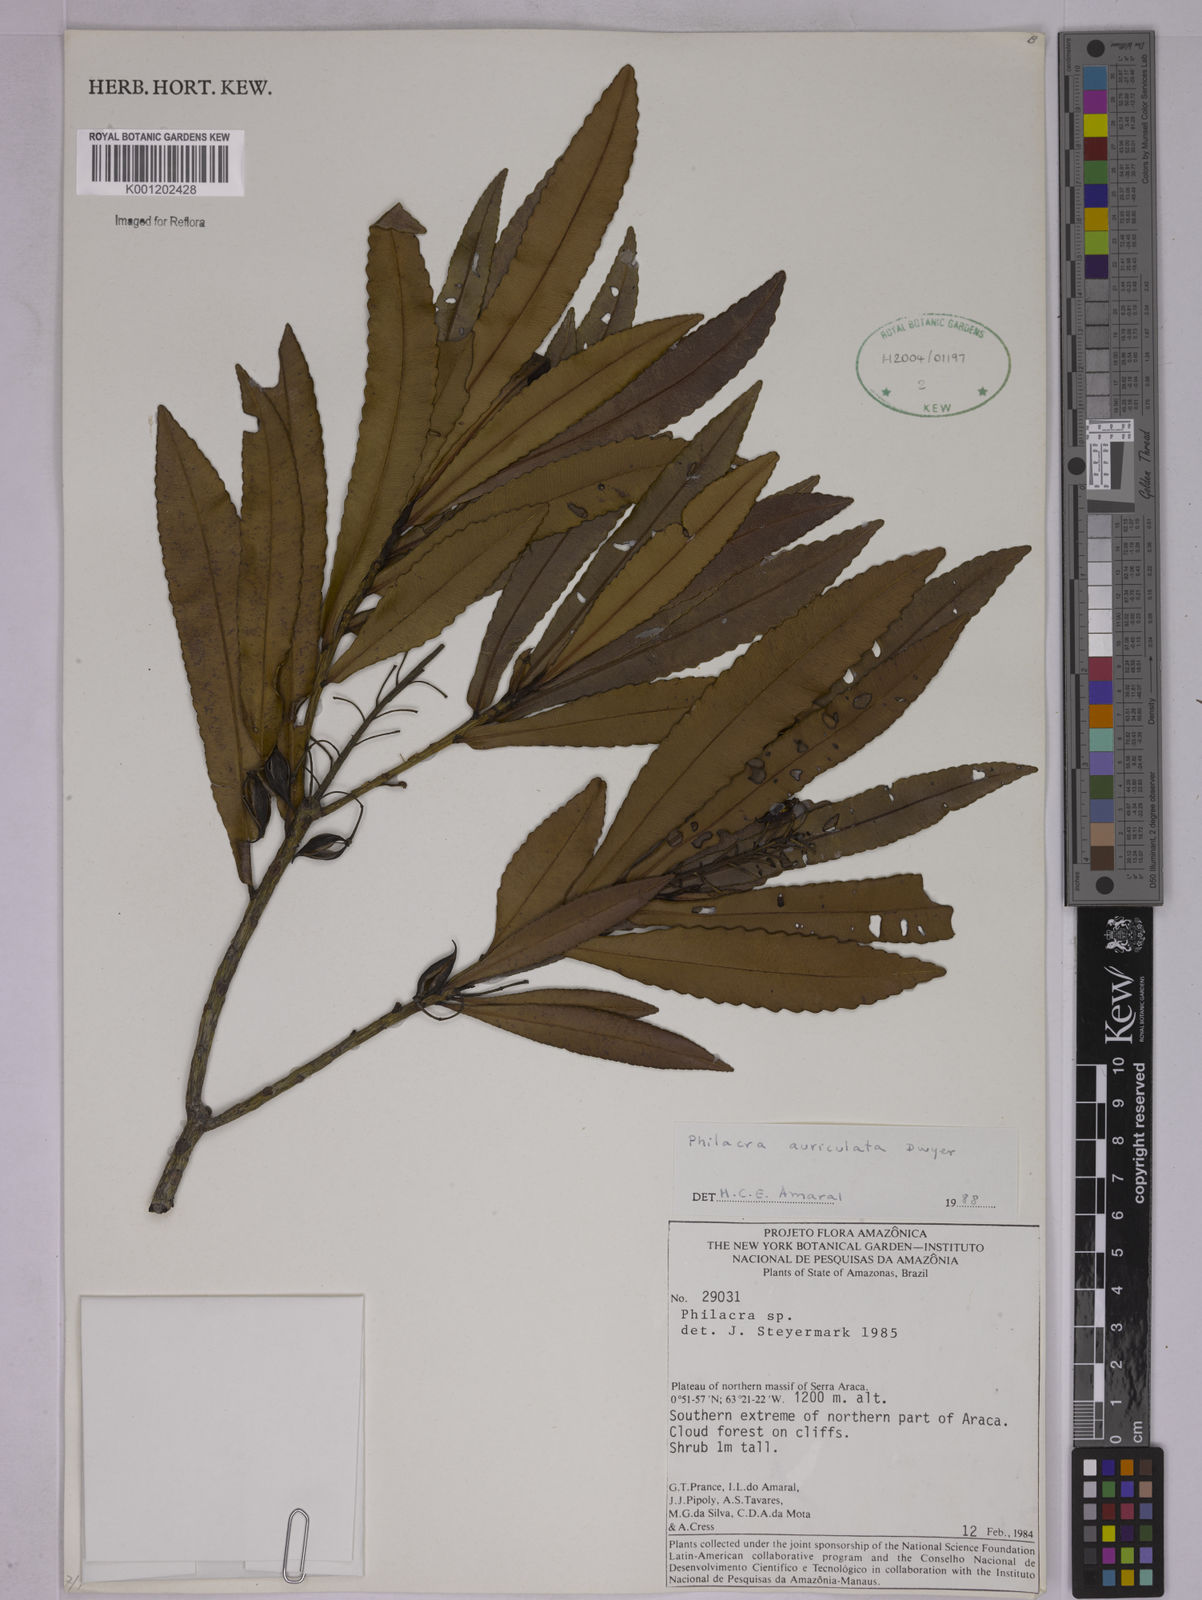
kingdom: Plantae
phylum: Tracheophyta
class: Magnoliopsida
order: Malpighiales
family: Ochnaceae
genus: Philacra
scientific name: Philacra auriculata
